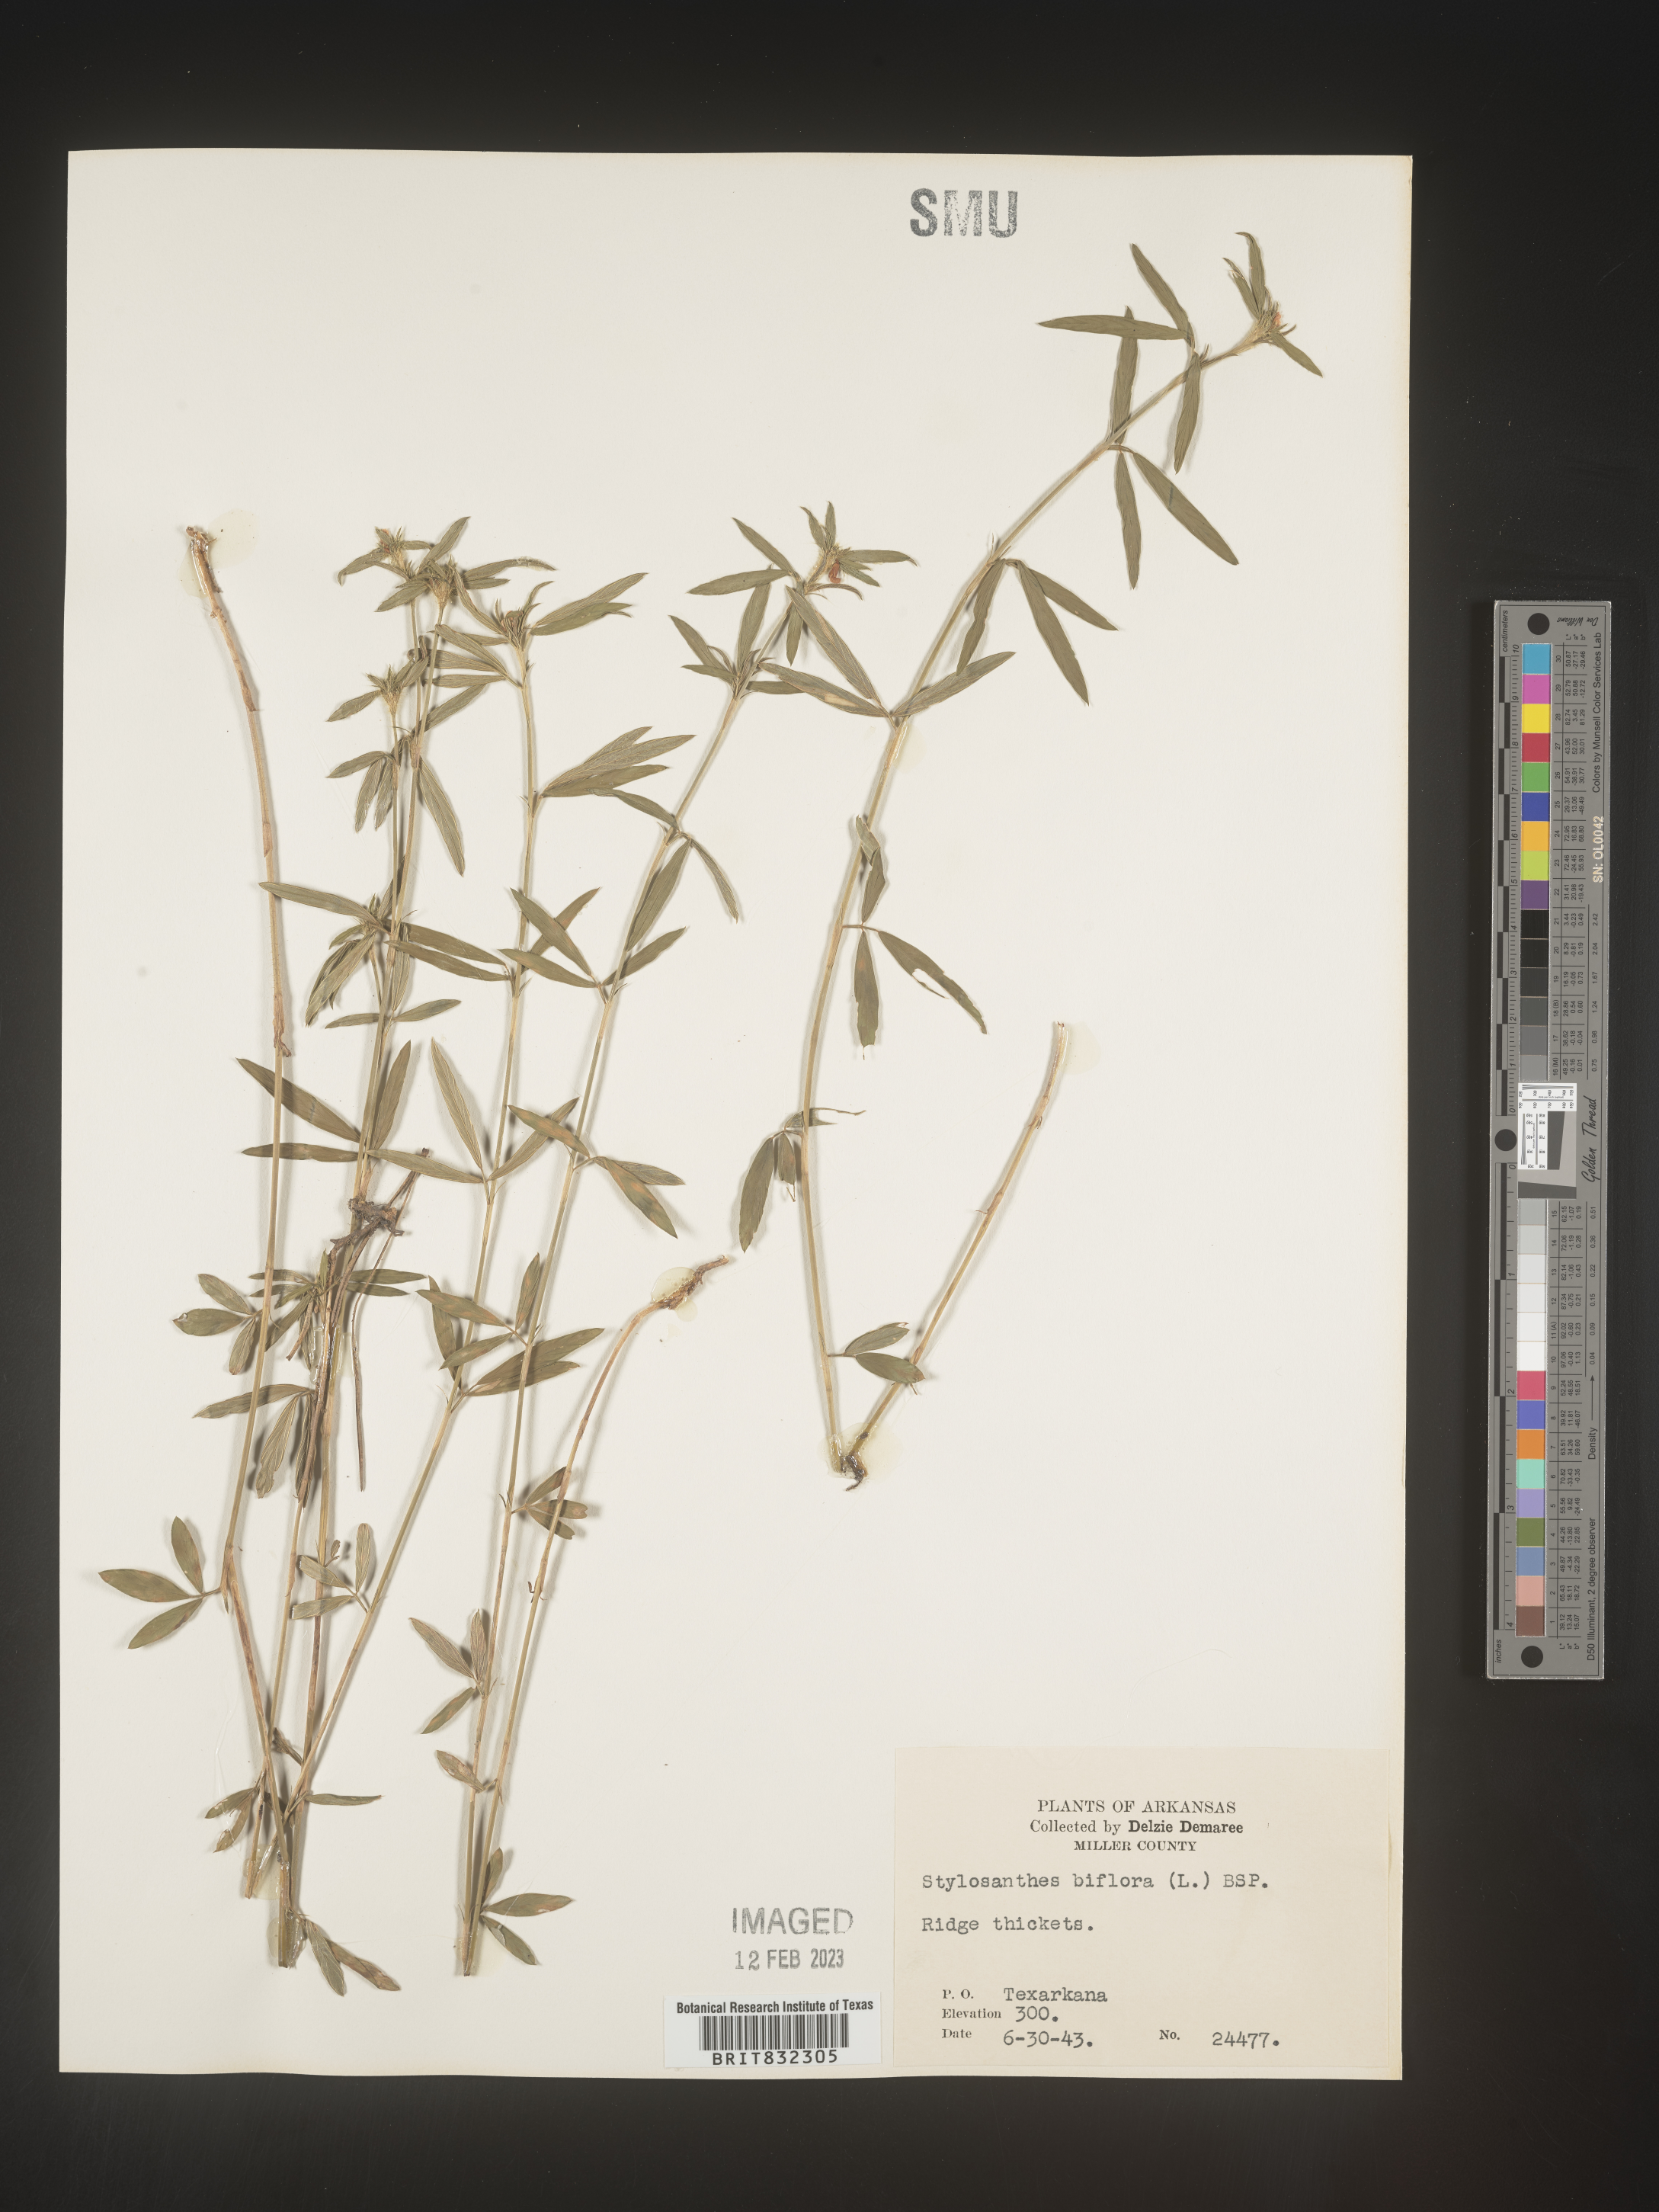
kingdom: Plantae
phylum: Tracheophyta
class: Magnoliopsida
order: Fabales
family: Fabaceae
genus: Stylosanthes
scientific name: Stylosanthes biflora
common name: Two-flower pencil-flower
